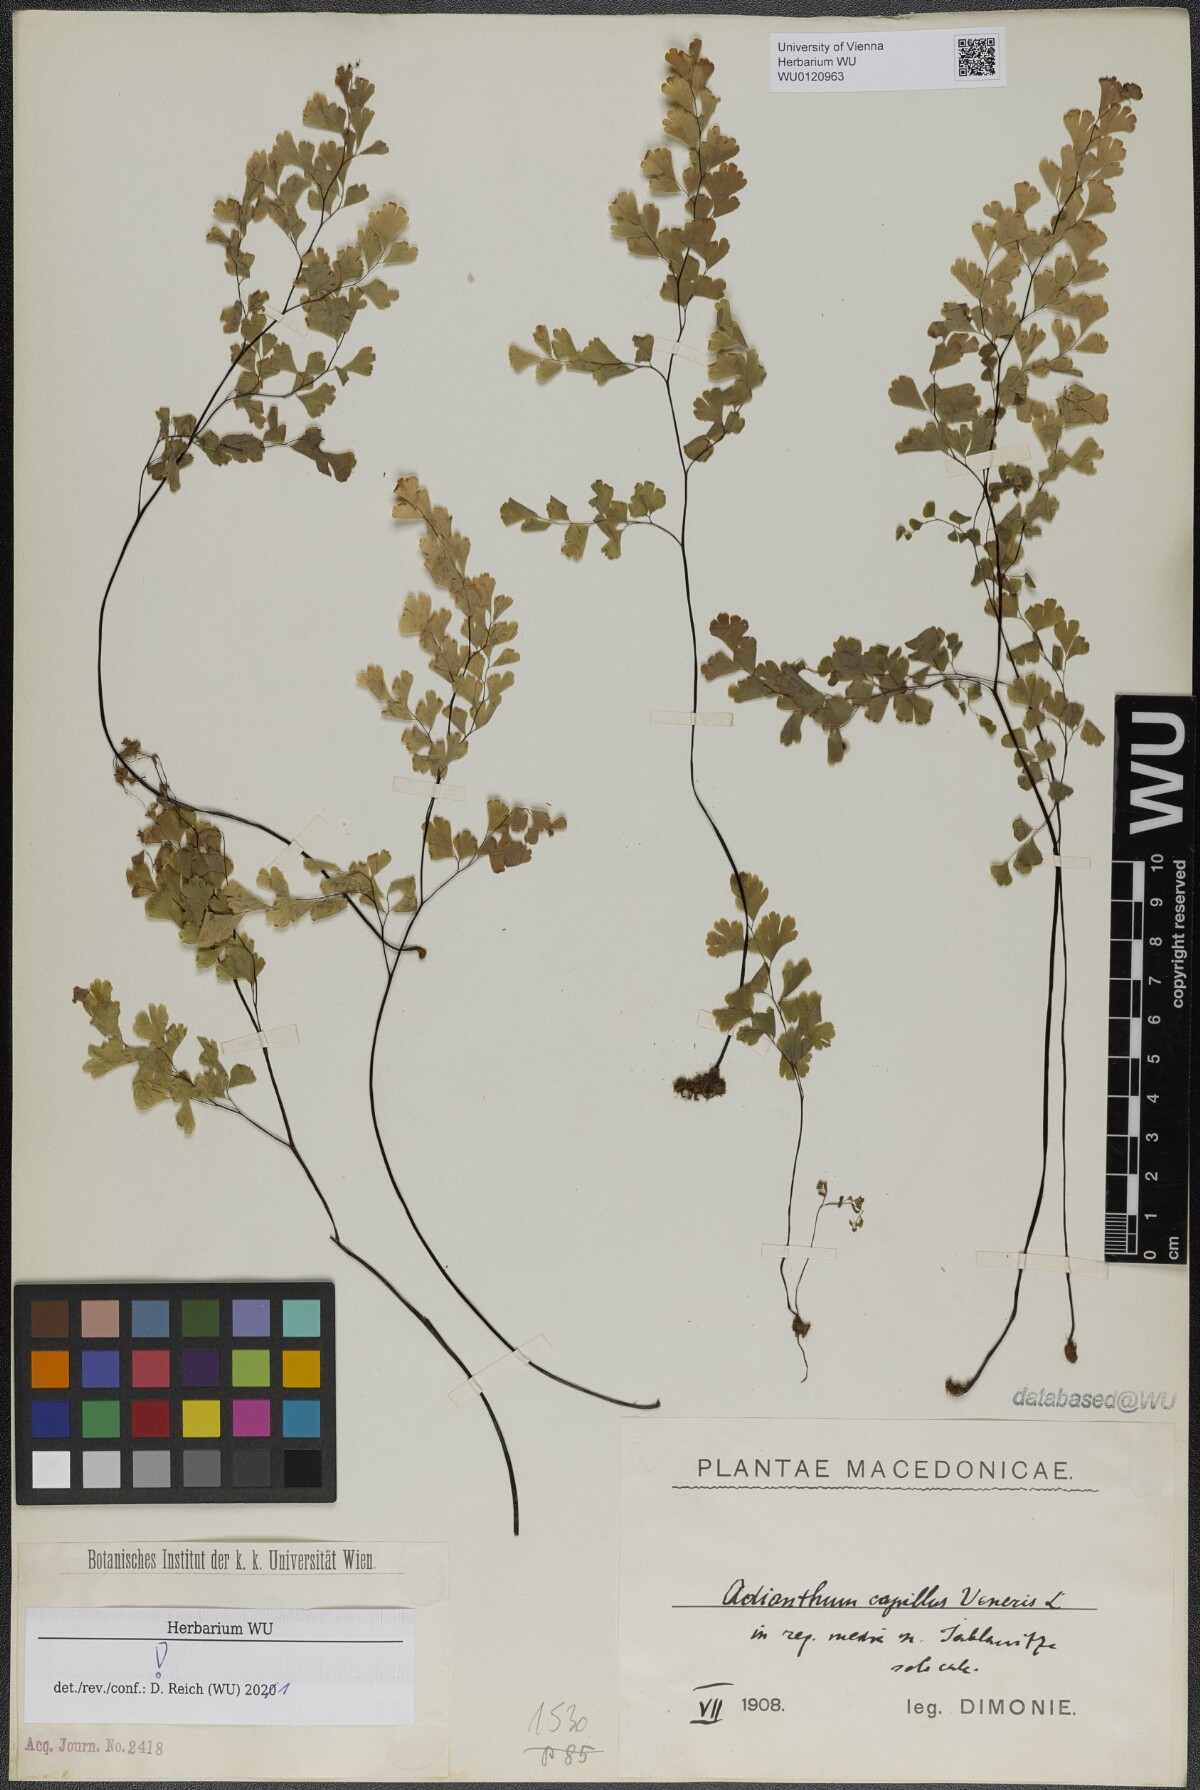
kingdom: Plantae
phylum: Tracheophyta
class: Polypodiopsida
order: Polypodiales
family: Pteridaceae
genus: Adiantum
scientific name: Adiantum capillus-veneris
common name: Maidenhair fern
